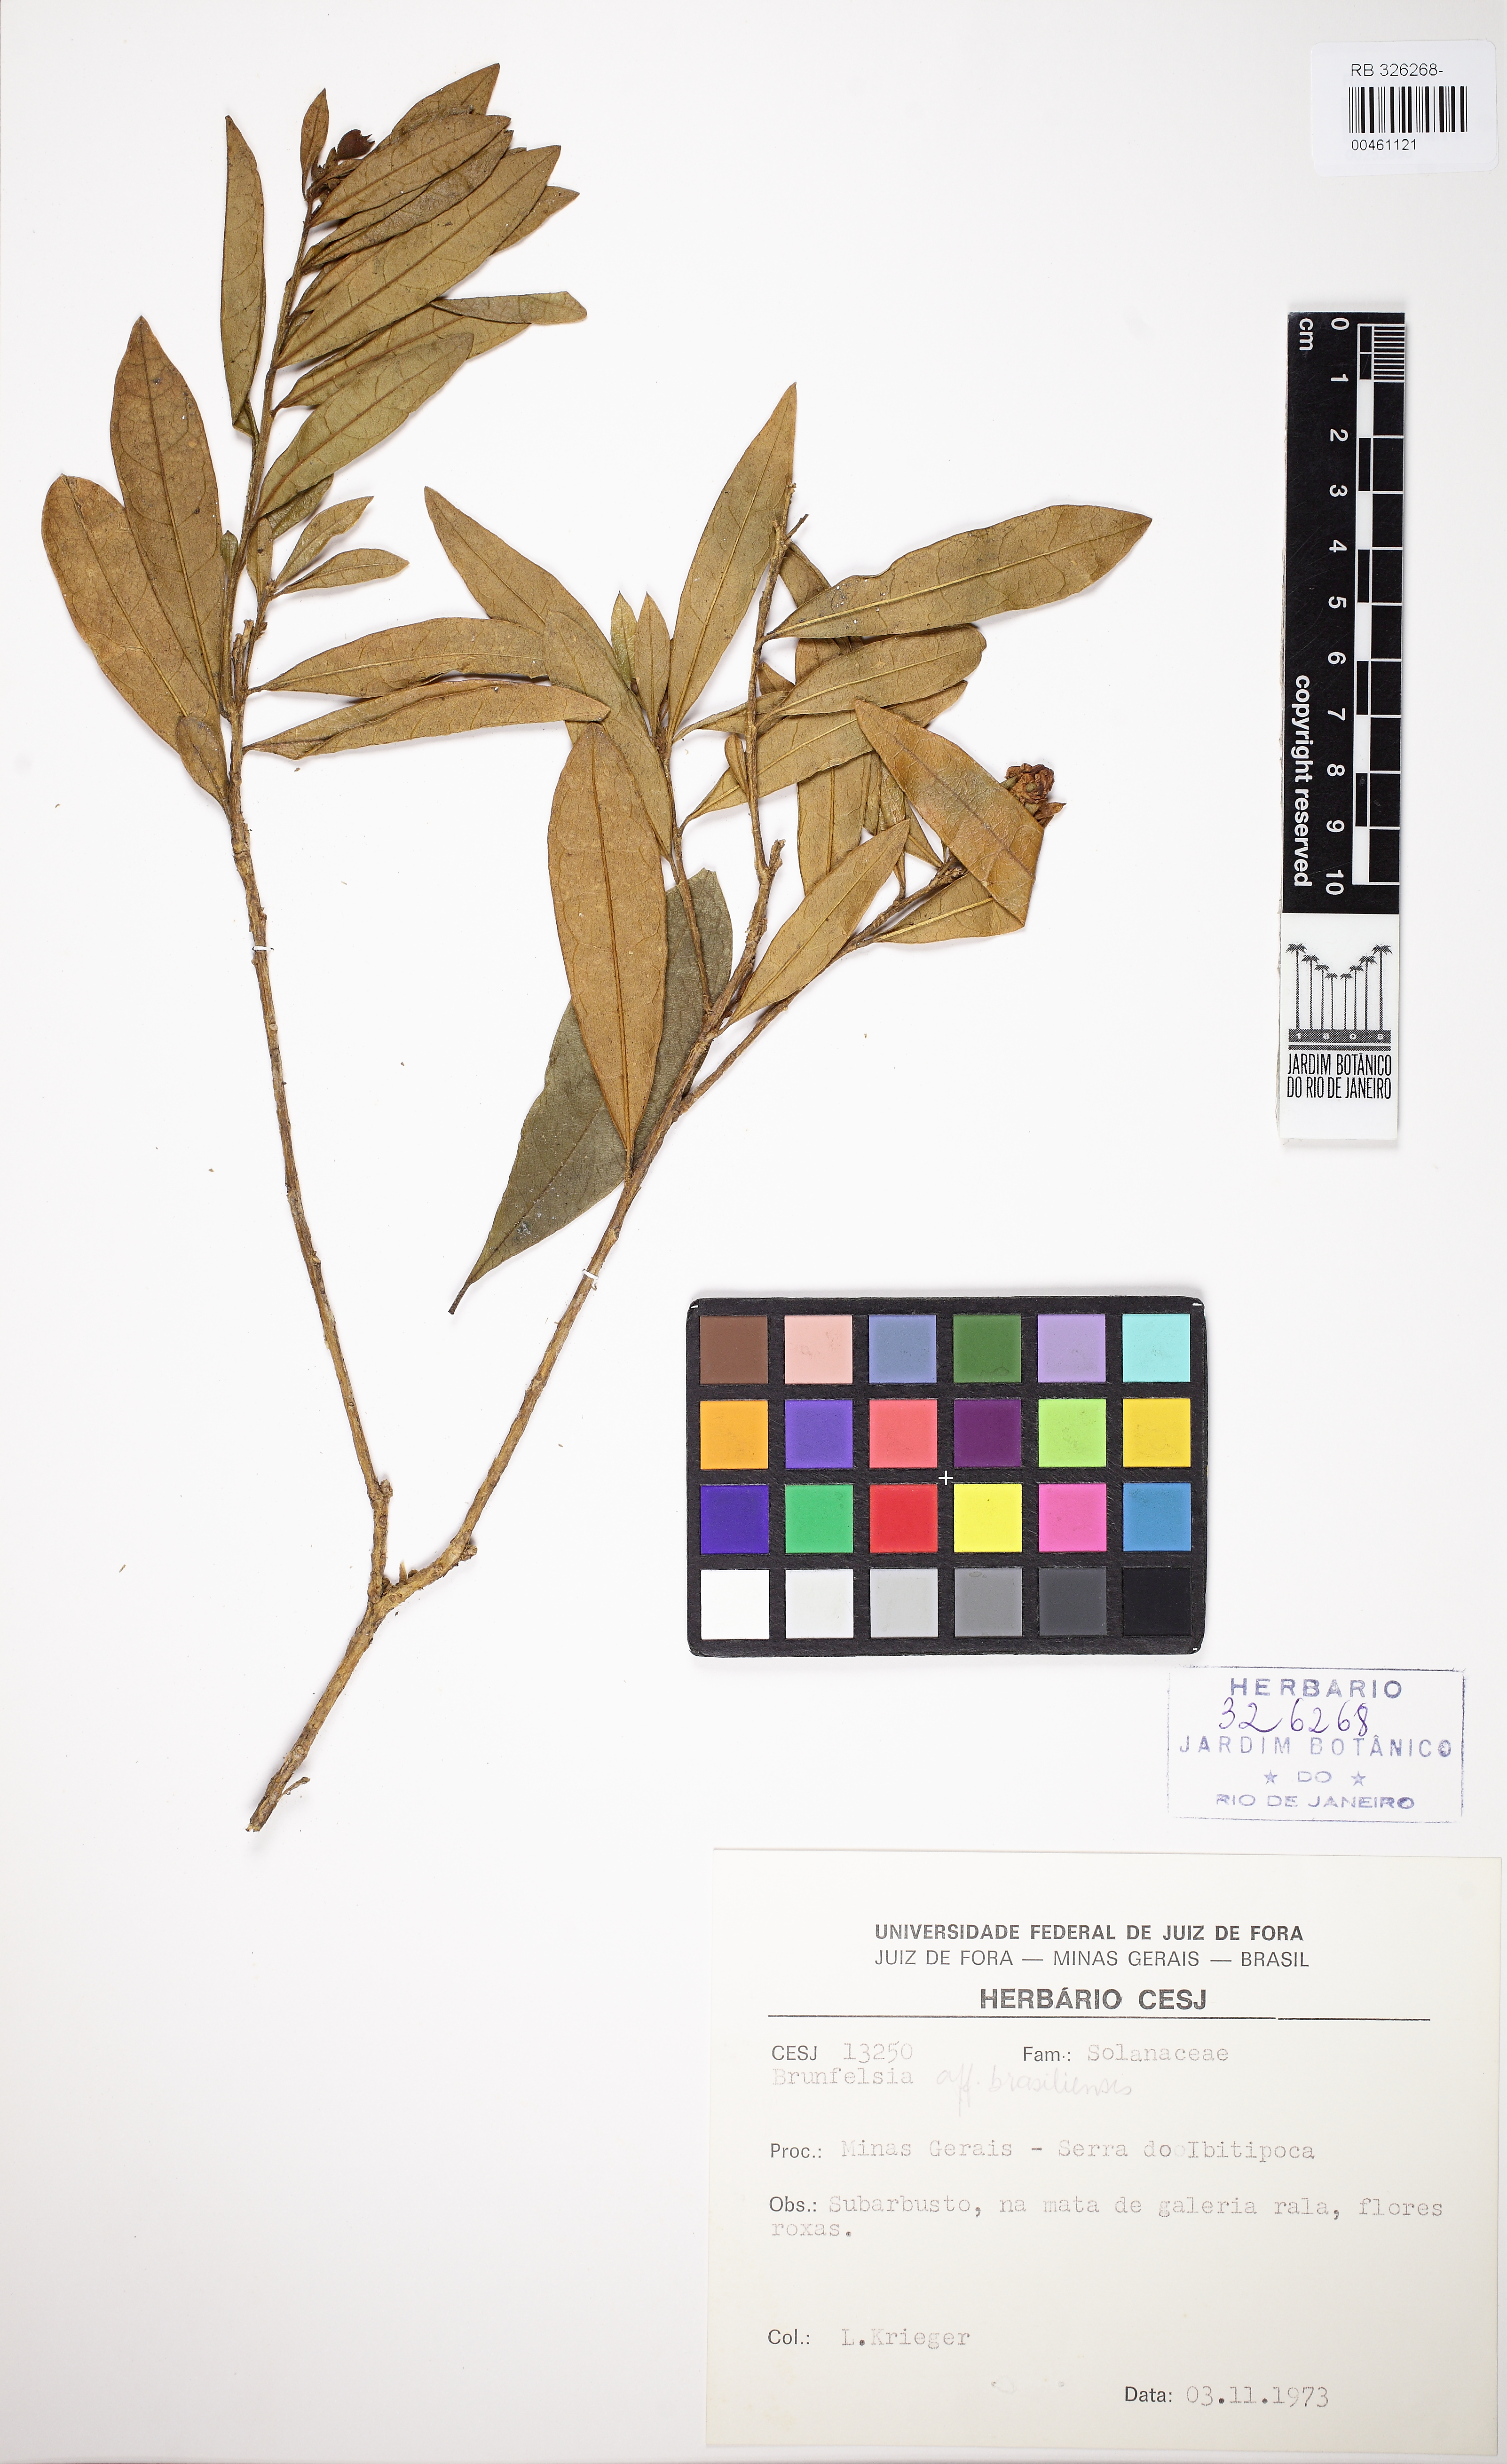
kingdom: Plantae
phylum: Tracheophyta
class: Magnoliopsida
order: Solanales
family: Solanaceae
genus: Brunfelsia
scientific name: Brunfelsia brasiliensis
